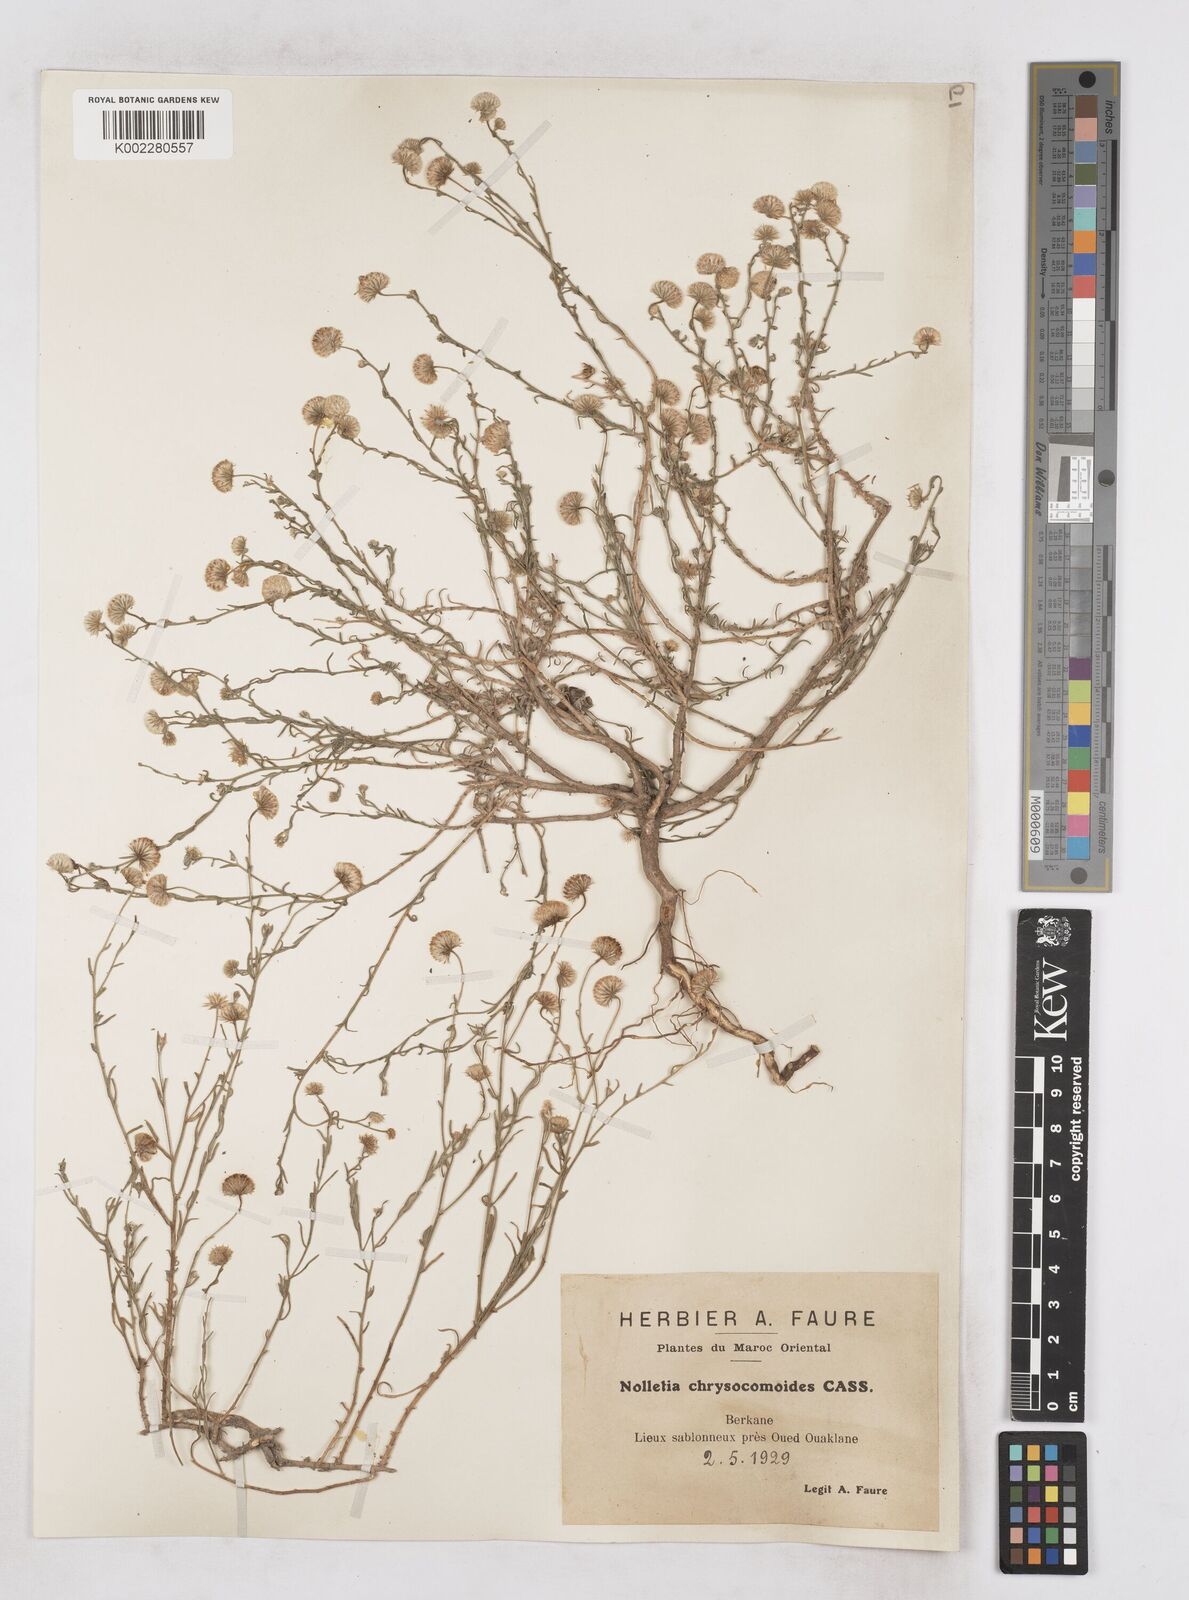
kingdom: Plantae
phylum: Tracheophyta
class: Magnoliopsida
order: Asterales
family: Asteraceae
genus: Nolletia
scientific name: Nolletia chrysocomoides
